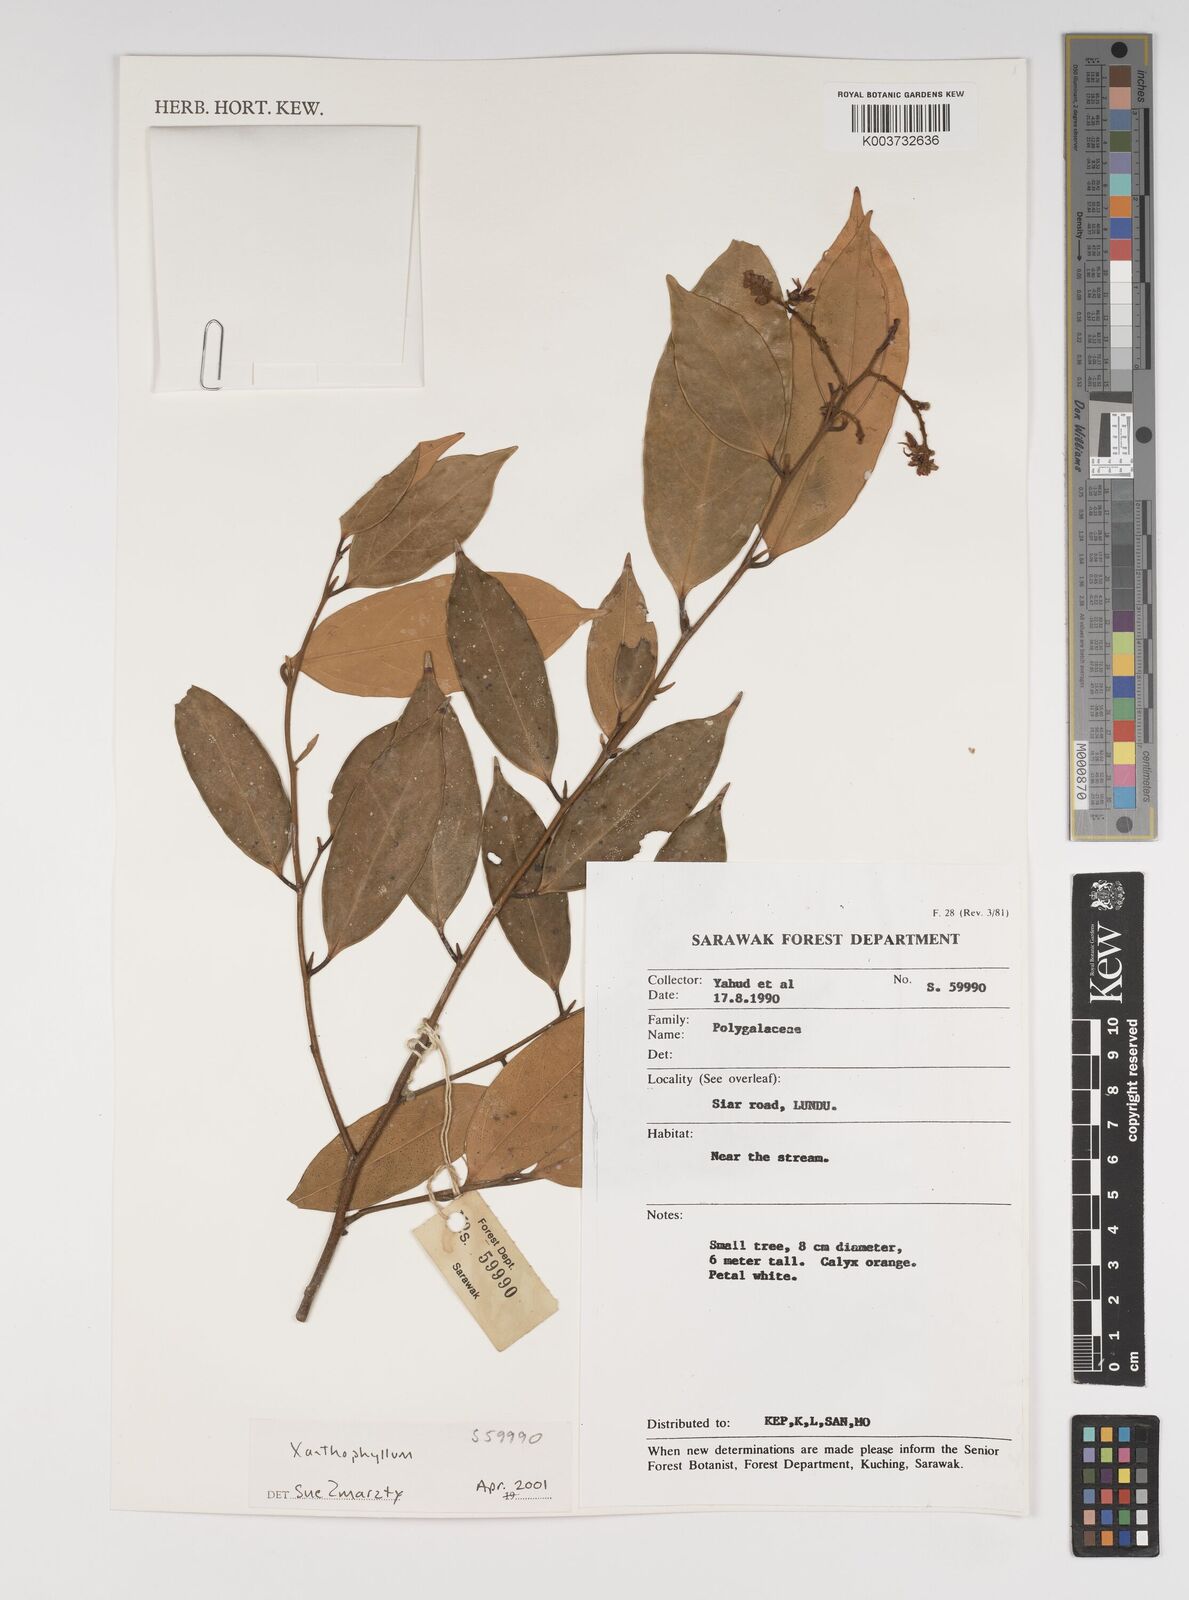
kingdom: Plantae
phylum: Tracheophyta
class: Magnoliopsida
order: Fabales
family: Polygalaceae
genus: Xanthophyllum
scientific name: Xanthophyllum
